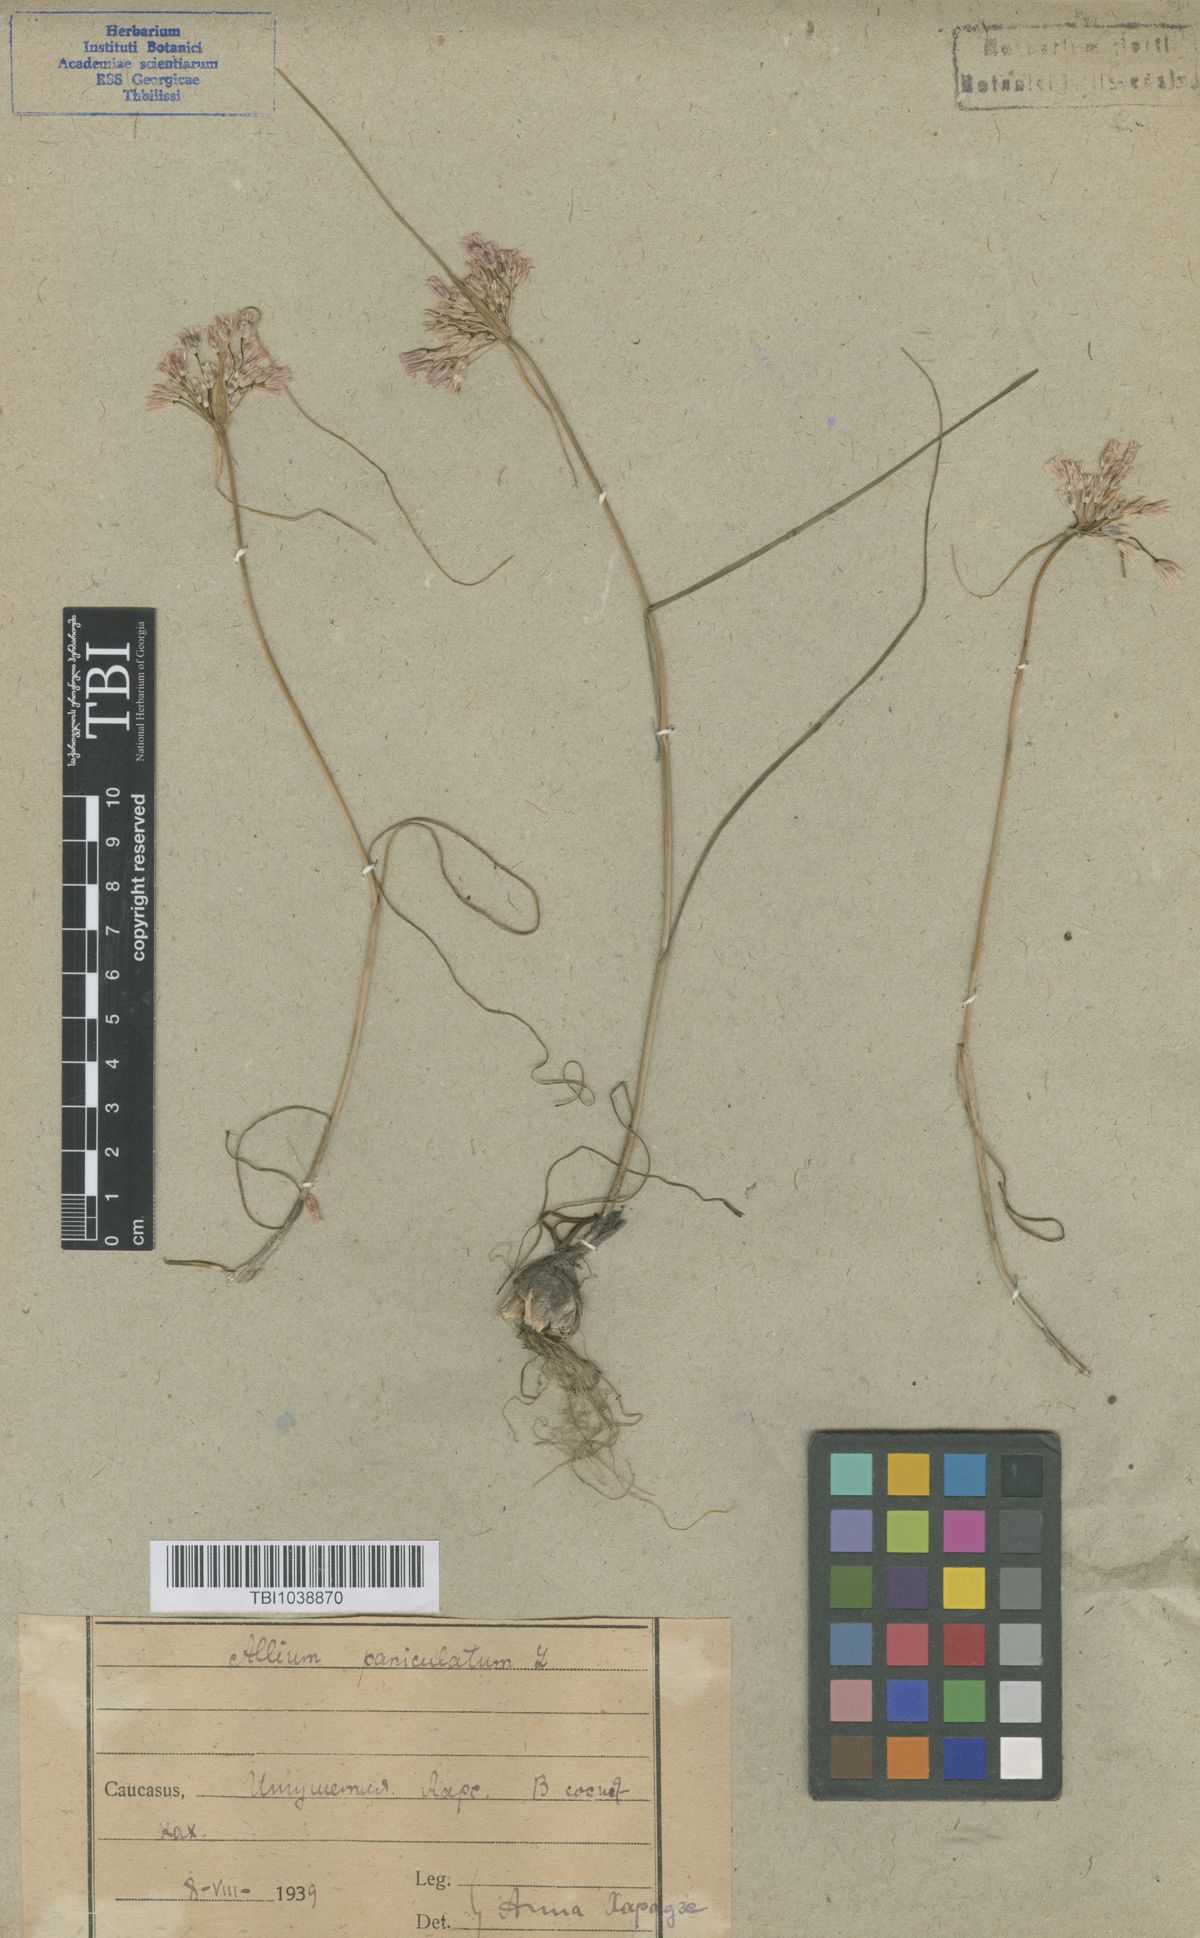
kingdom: Plantae
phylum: Tracheophyta
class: Liliopsida
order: Asparagales
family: Amaryllidaceae
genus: Allium
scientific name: Allium paniculatum
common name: Pale garlic
